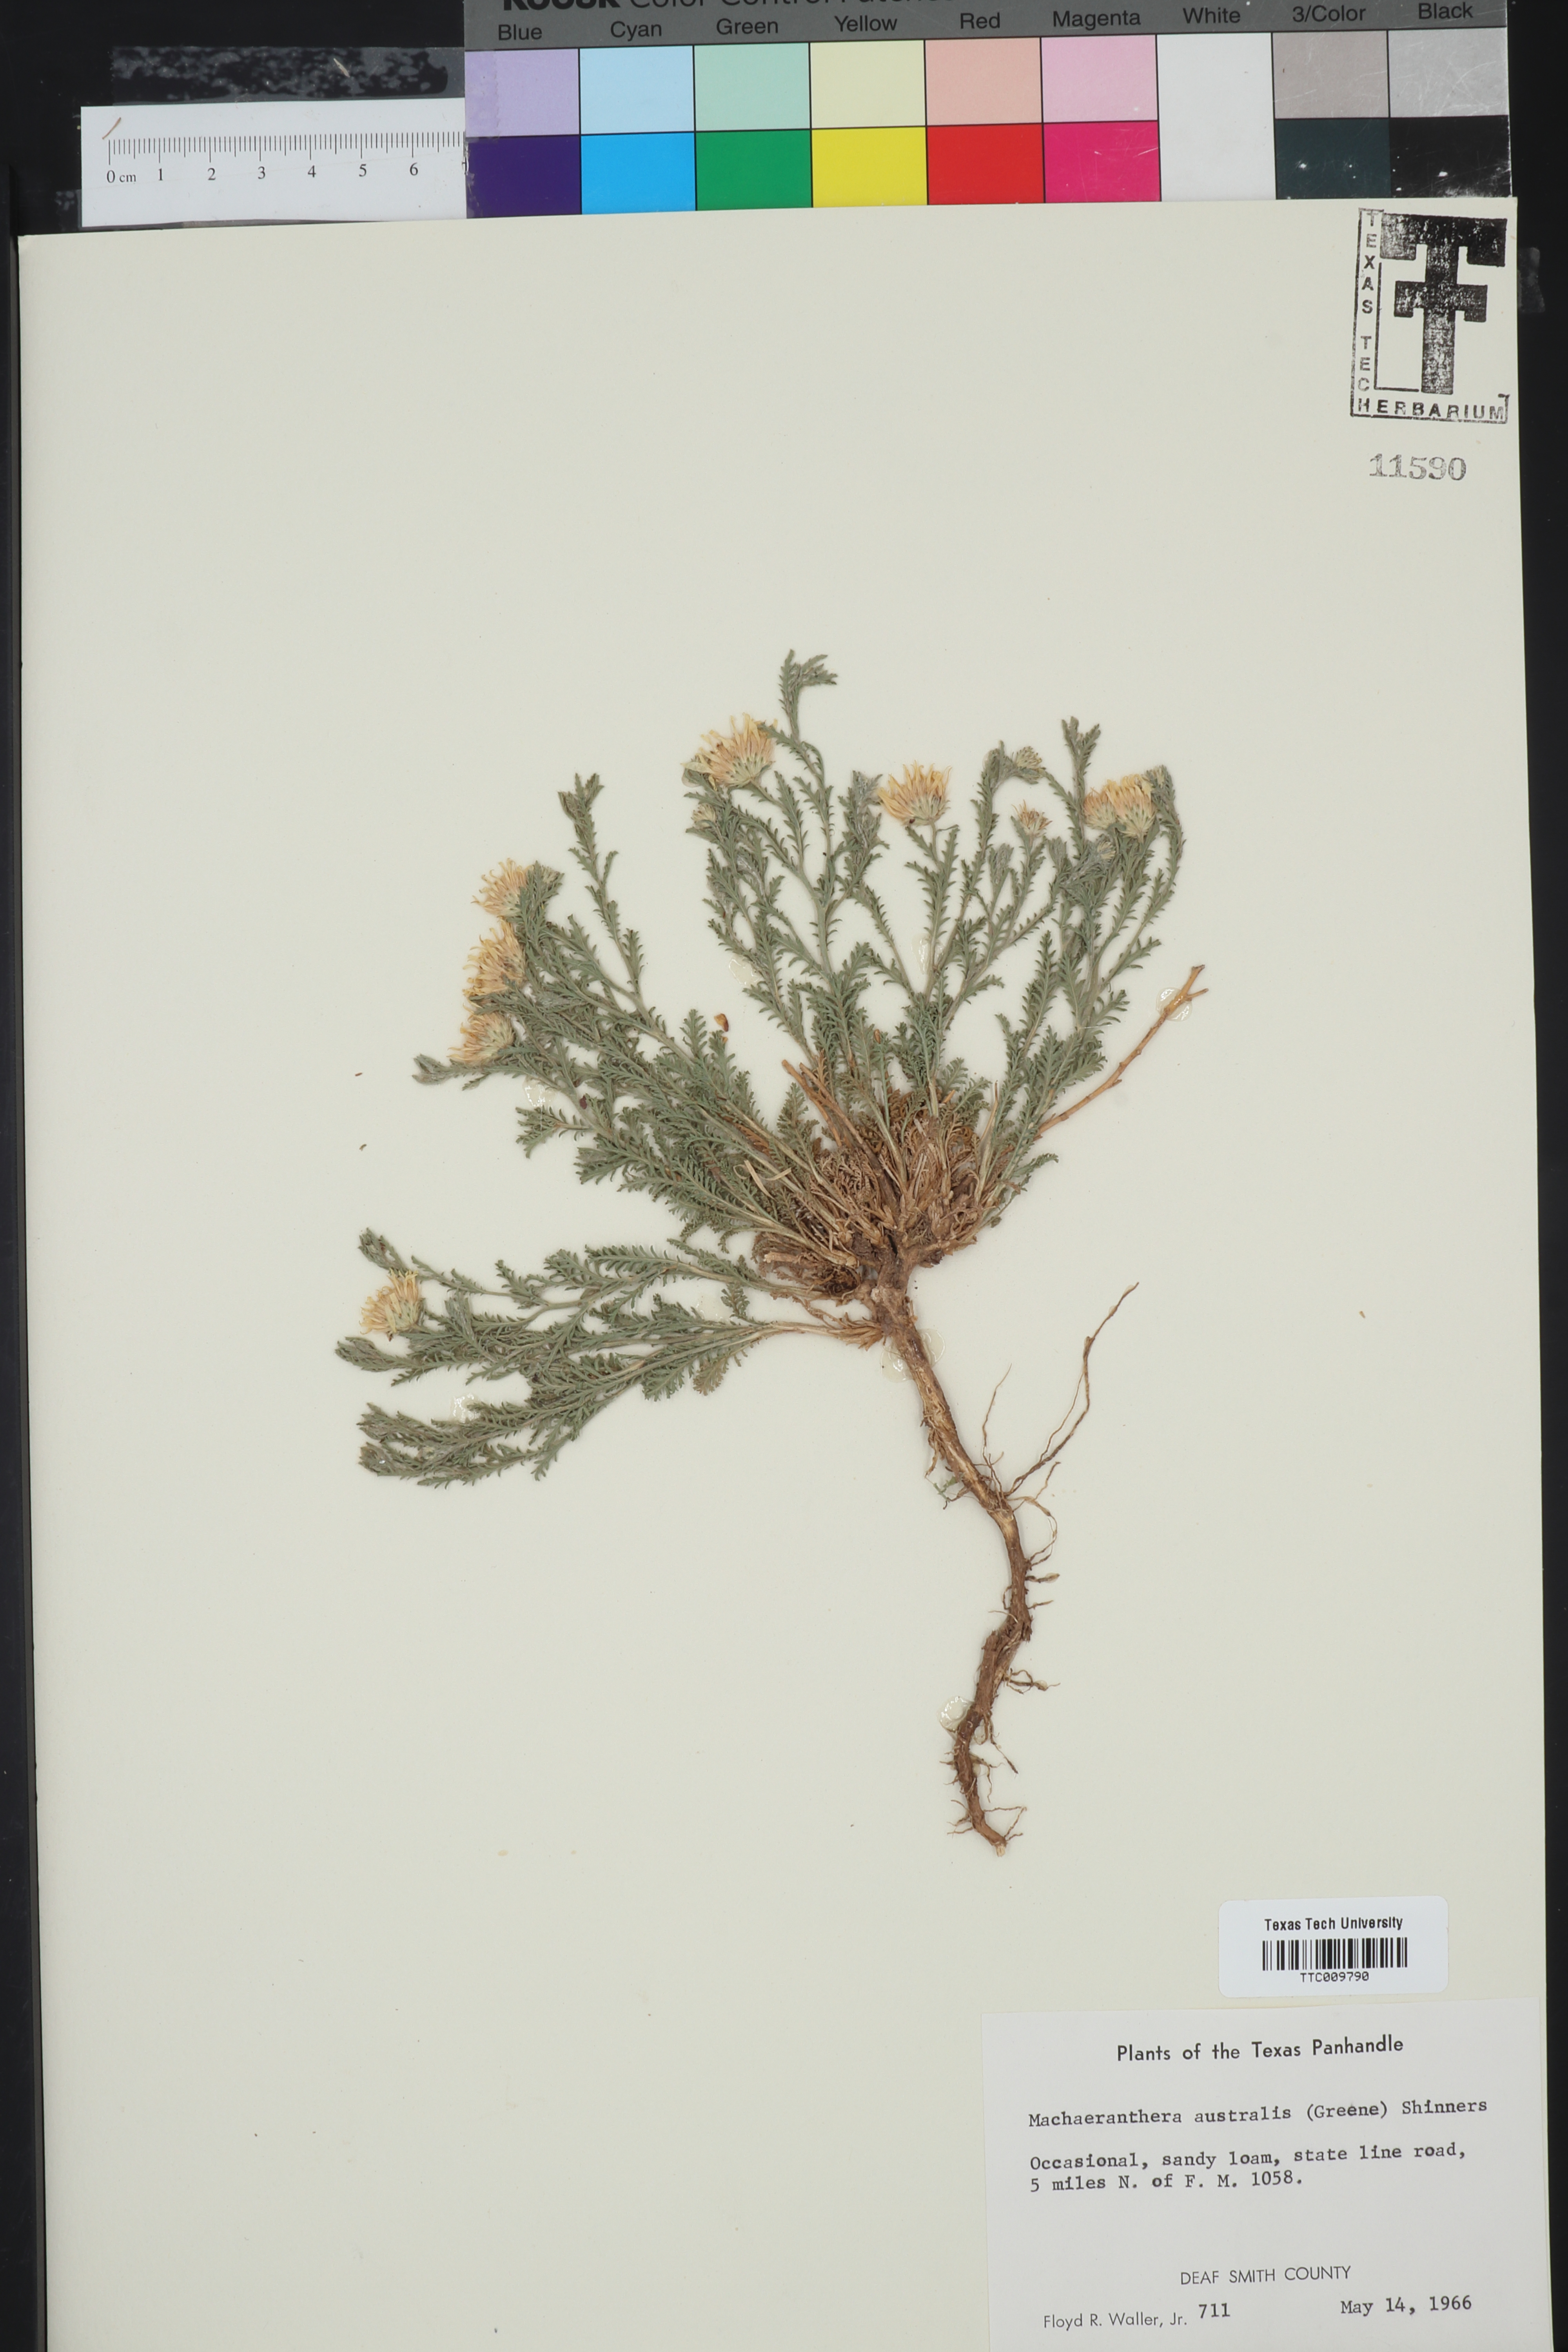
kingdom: Plantae
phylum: Tracheophyta
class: Magnoliopsida
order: Asterales
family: Asteraceae
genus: Xanthisma
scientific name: Xanthisma spinulosum
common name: Spiny goldenweed
